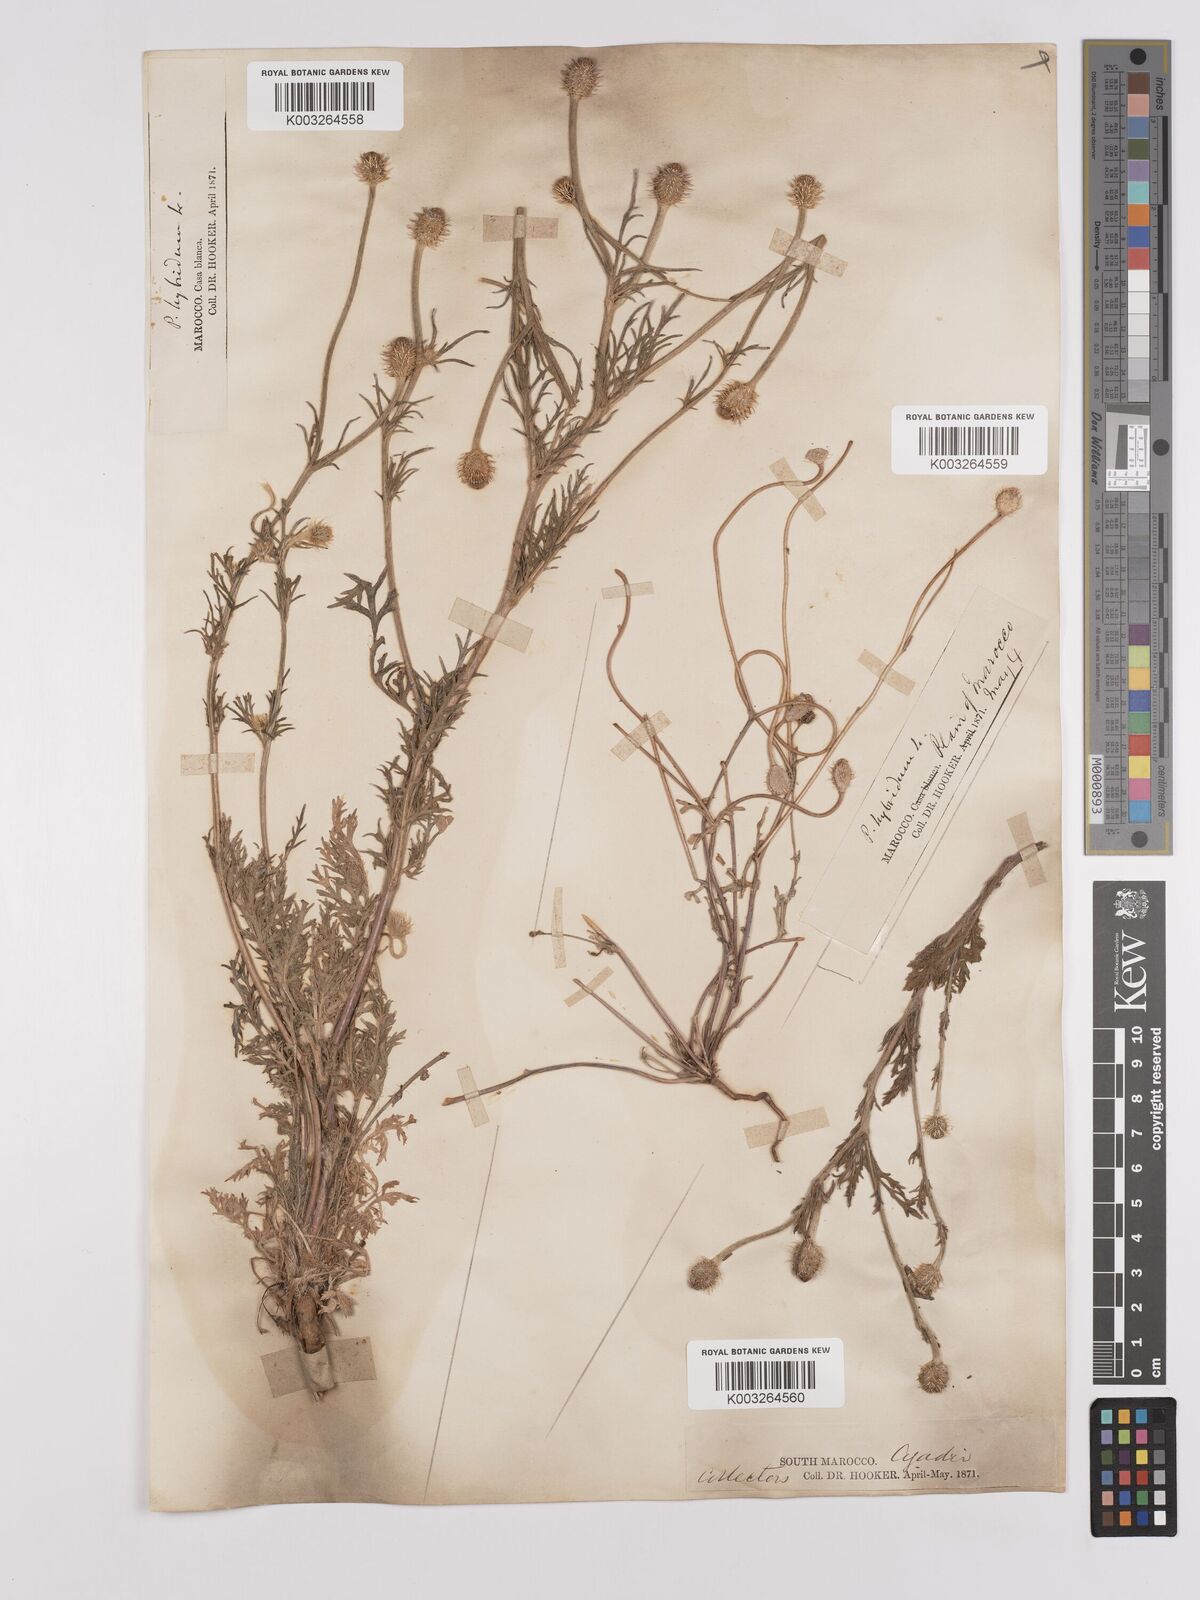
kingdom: Plantae
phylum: Tracheophyta
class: Magnoliopsida
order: Ranunculales
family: Papaveraceae
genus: Papaver
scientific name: Papaver
